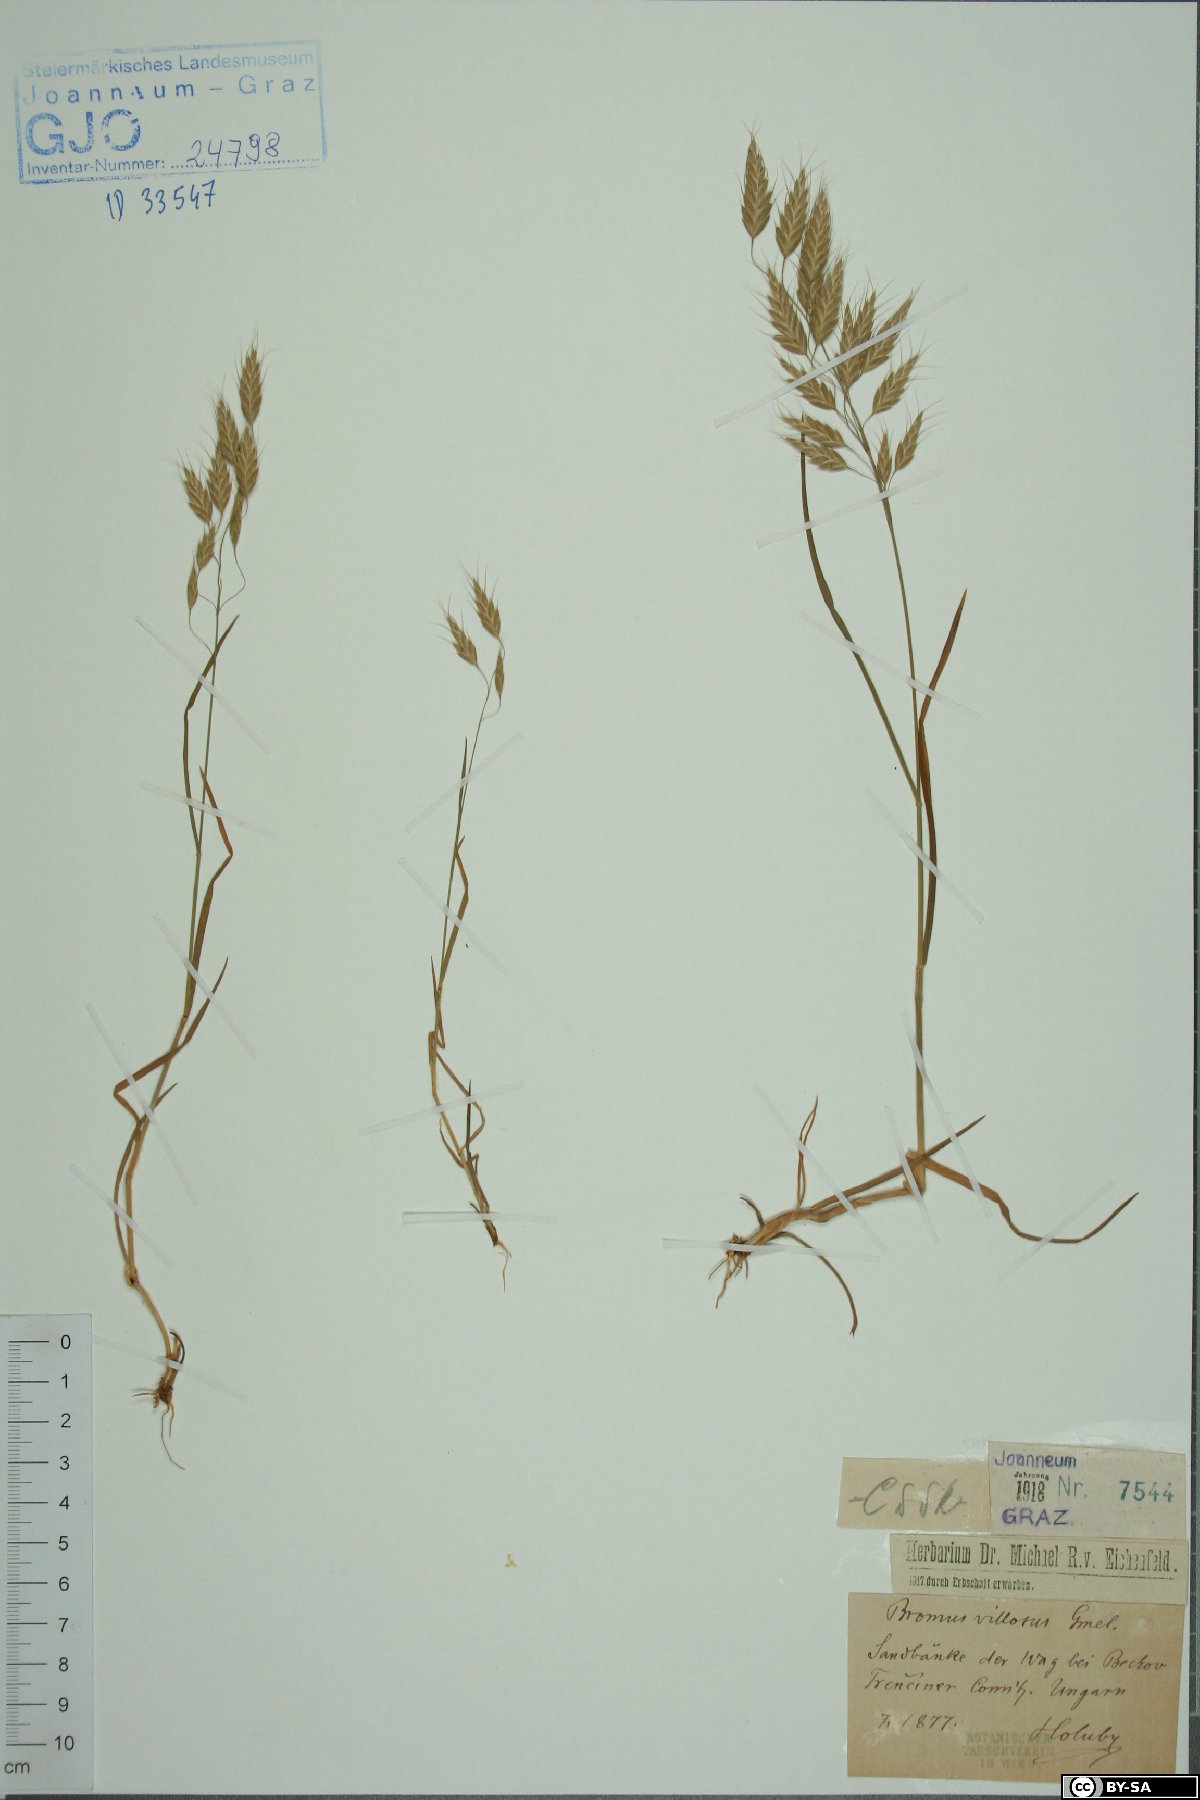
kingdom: Plantae
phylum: Tracheophyta
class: Liliopsida
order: Poales
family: Poaceae
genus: Bromus
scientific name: Bromus squarrosus
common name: Corn brome
